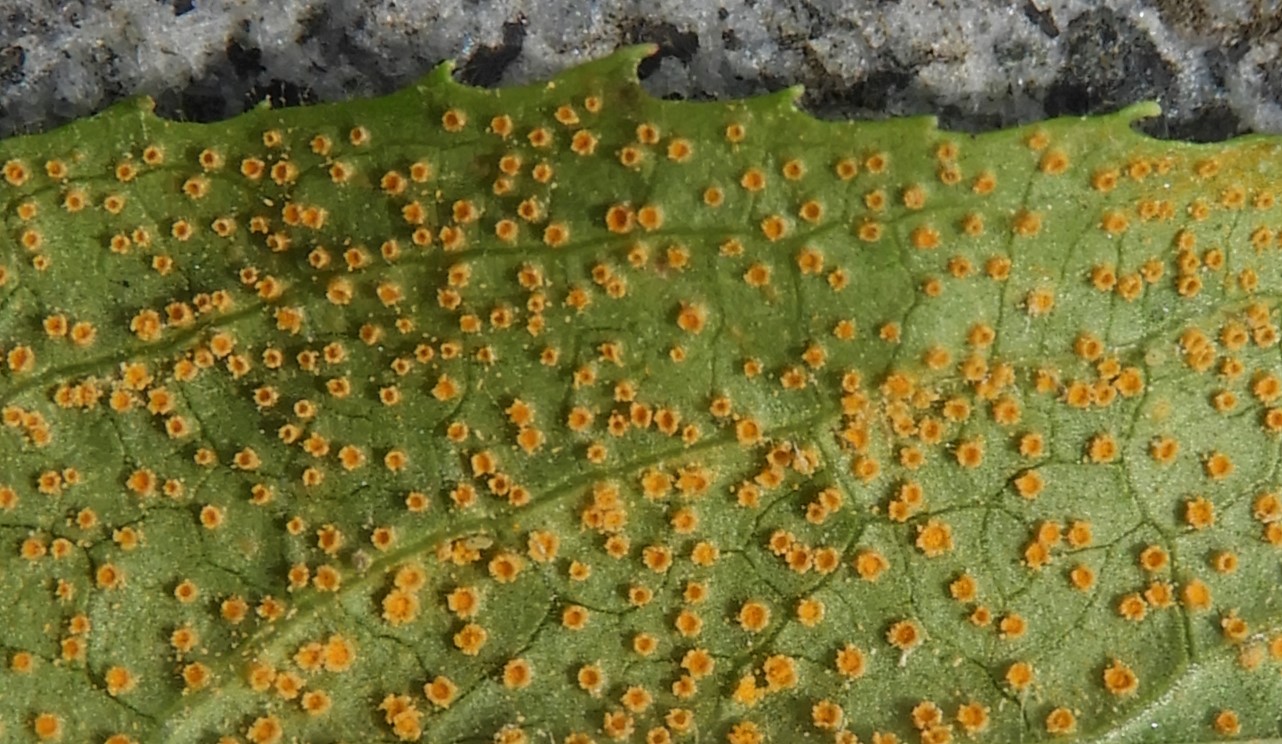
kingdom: Fungi
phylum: Basidiomycota
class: Pucciniomycetes
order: Pucciniales
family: Pucciniaceae
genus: Puccinia
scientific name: Puccinia pulverulenta
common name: dueurt-tvecellerust
